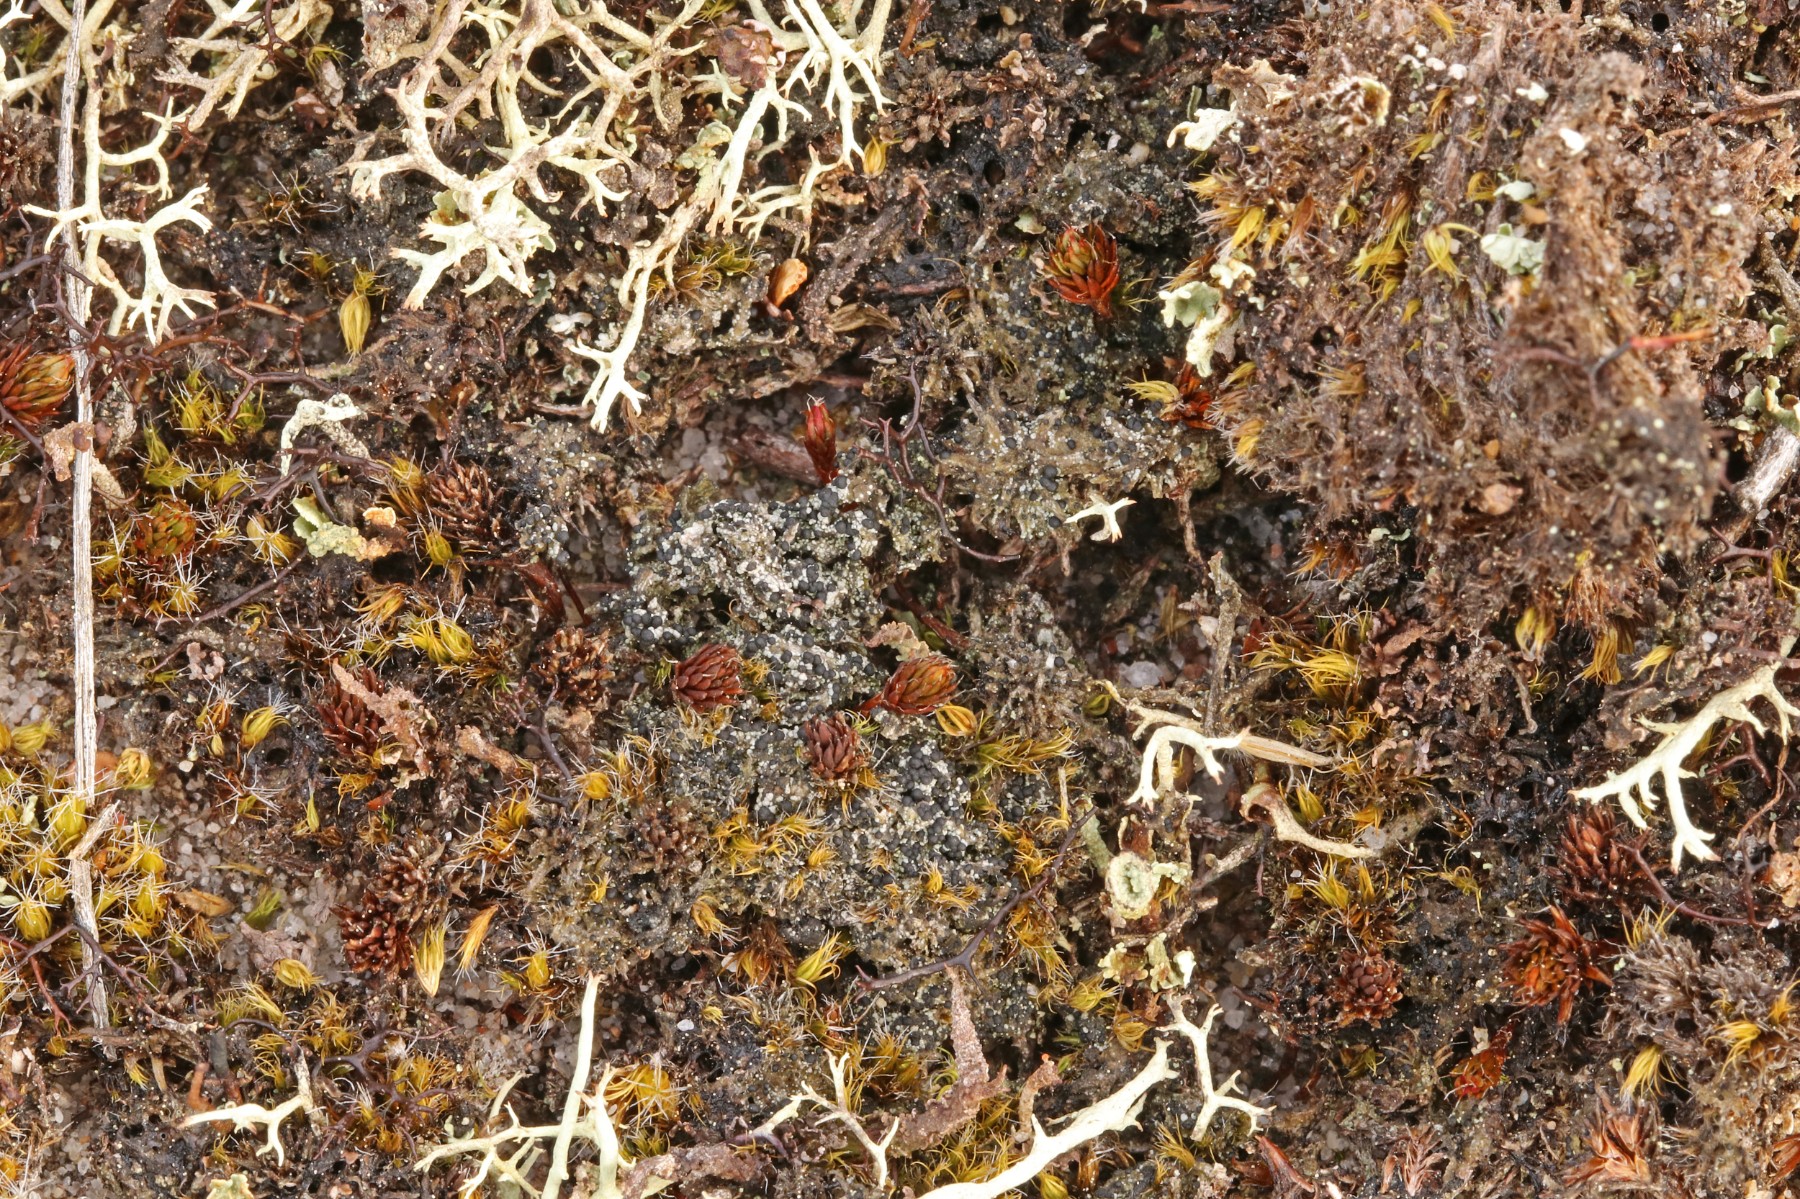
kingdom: Fungi
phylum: Ascomycota
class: Lecanoromycetes
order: Lecanorales
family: Byssolomataceae
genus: Micarea
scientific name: Micarea lignaria
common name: tørve-knaplav
